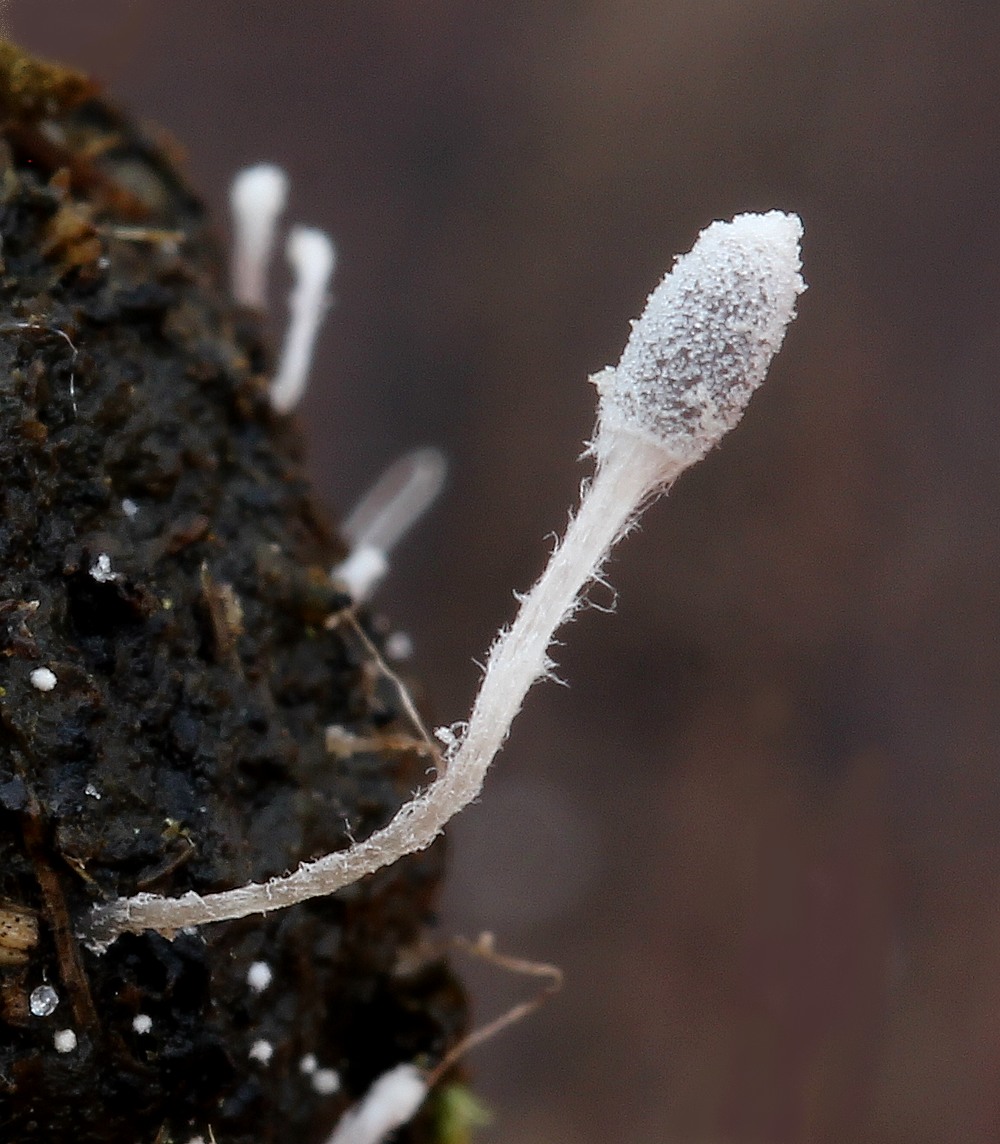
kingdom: Fungi
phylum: Basidiomycota
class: Agaricomycetes
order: Agaricales
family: Psathyrellaceae
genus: Coprinopsis
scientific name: Coprinopsis stercorea
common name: pjusket blækhat
